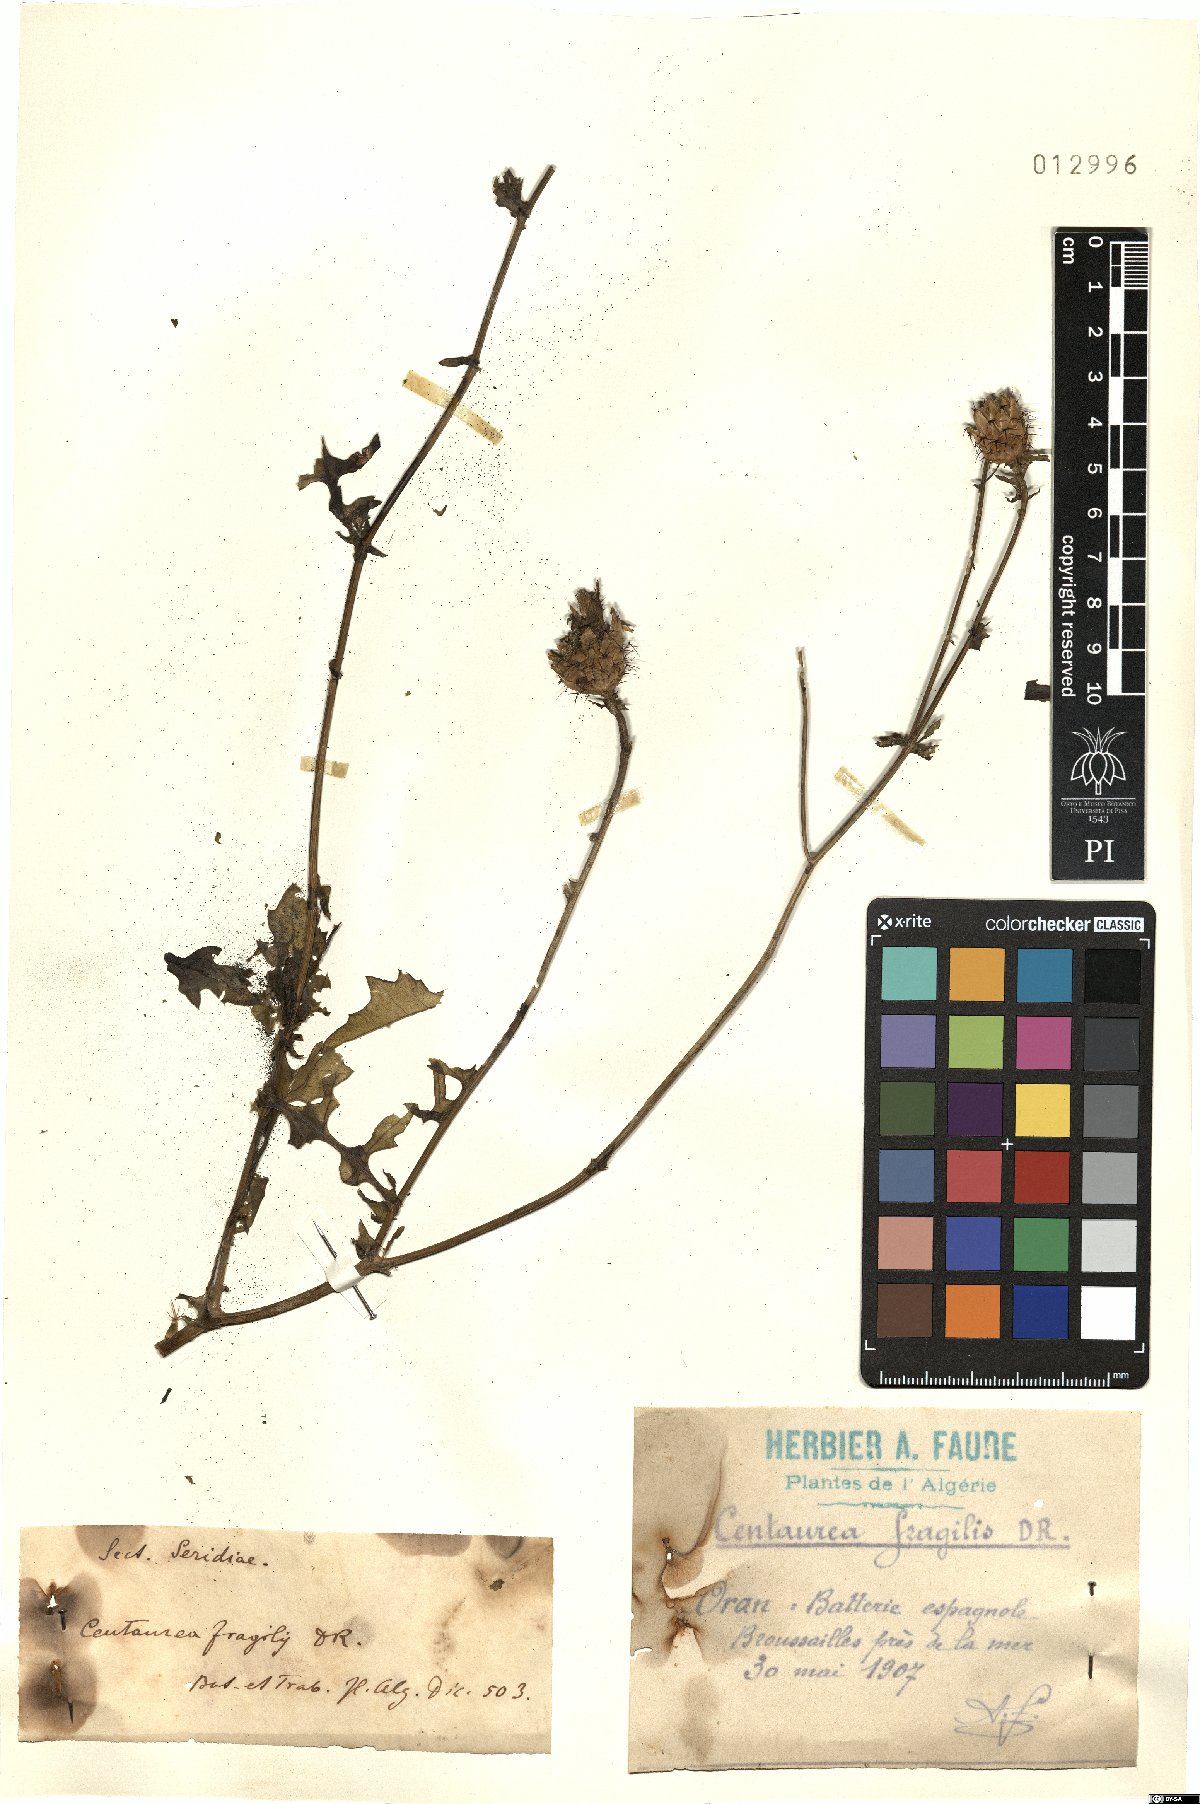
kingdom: Plantae
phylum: Tracheophyta
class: Magnoliopsida
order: Asterales
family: Asteraceae
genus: Centaurea
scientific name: Centaurea fragilis
